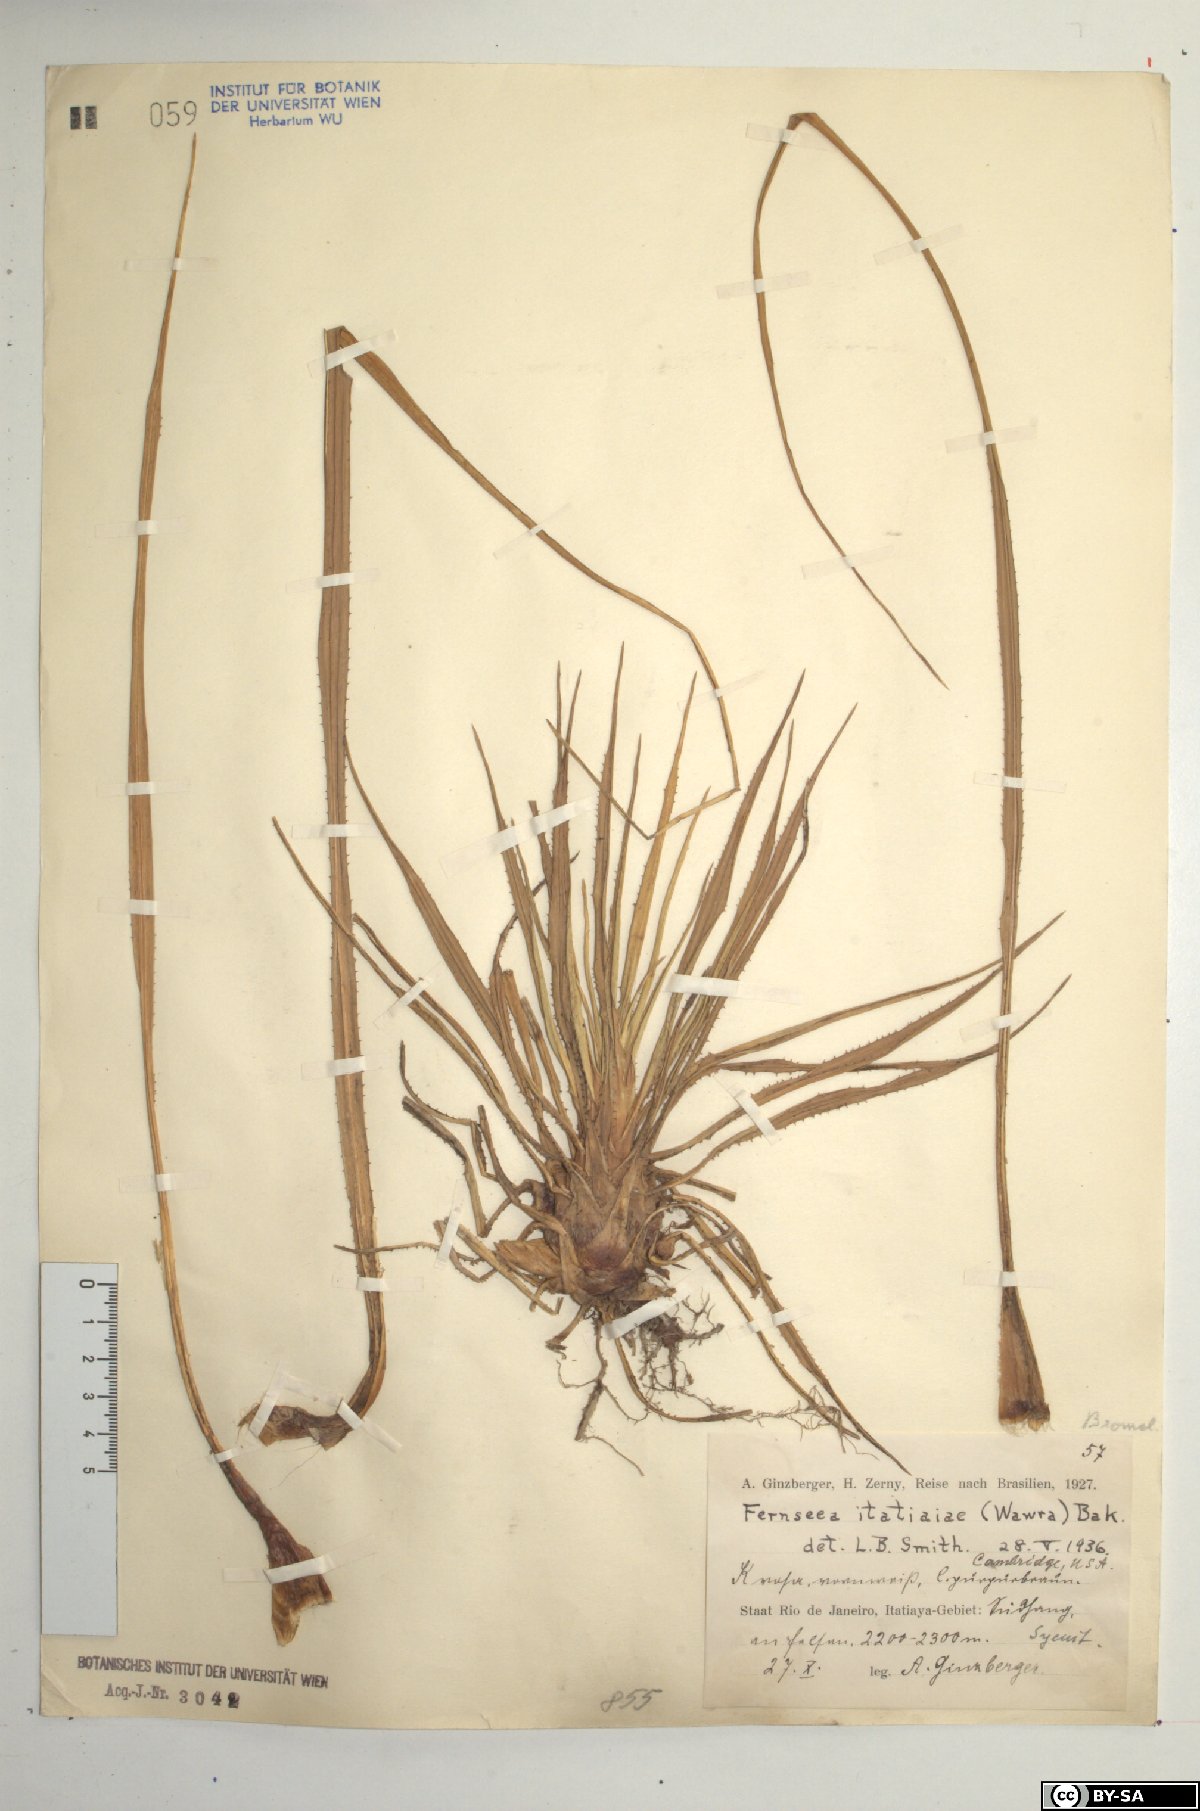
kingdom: Plantae
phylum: Tracheophyta
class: Liliopsida
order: Poales
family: Bromeliaceae
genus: Fernseea
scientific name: Fernseea itatiaiae
